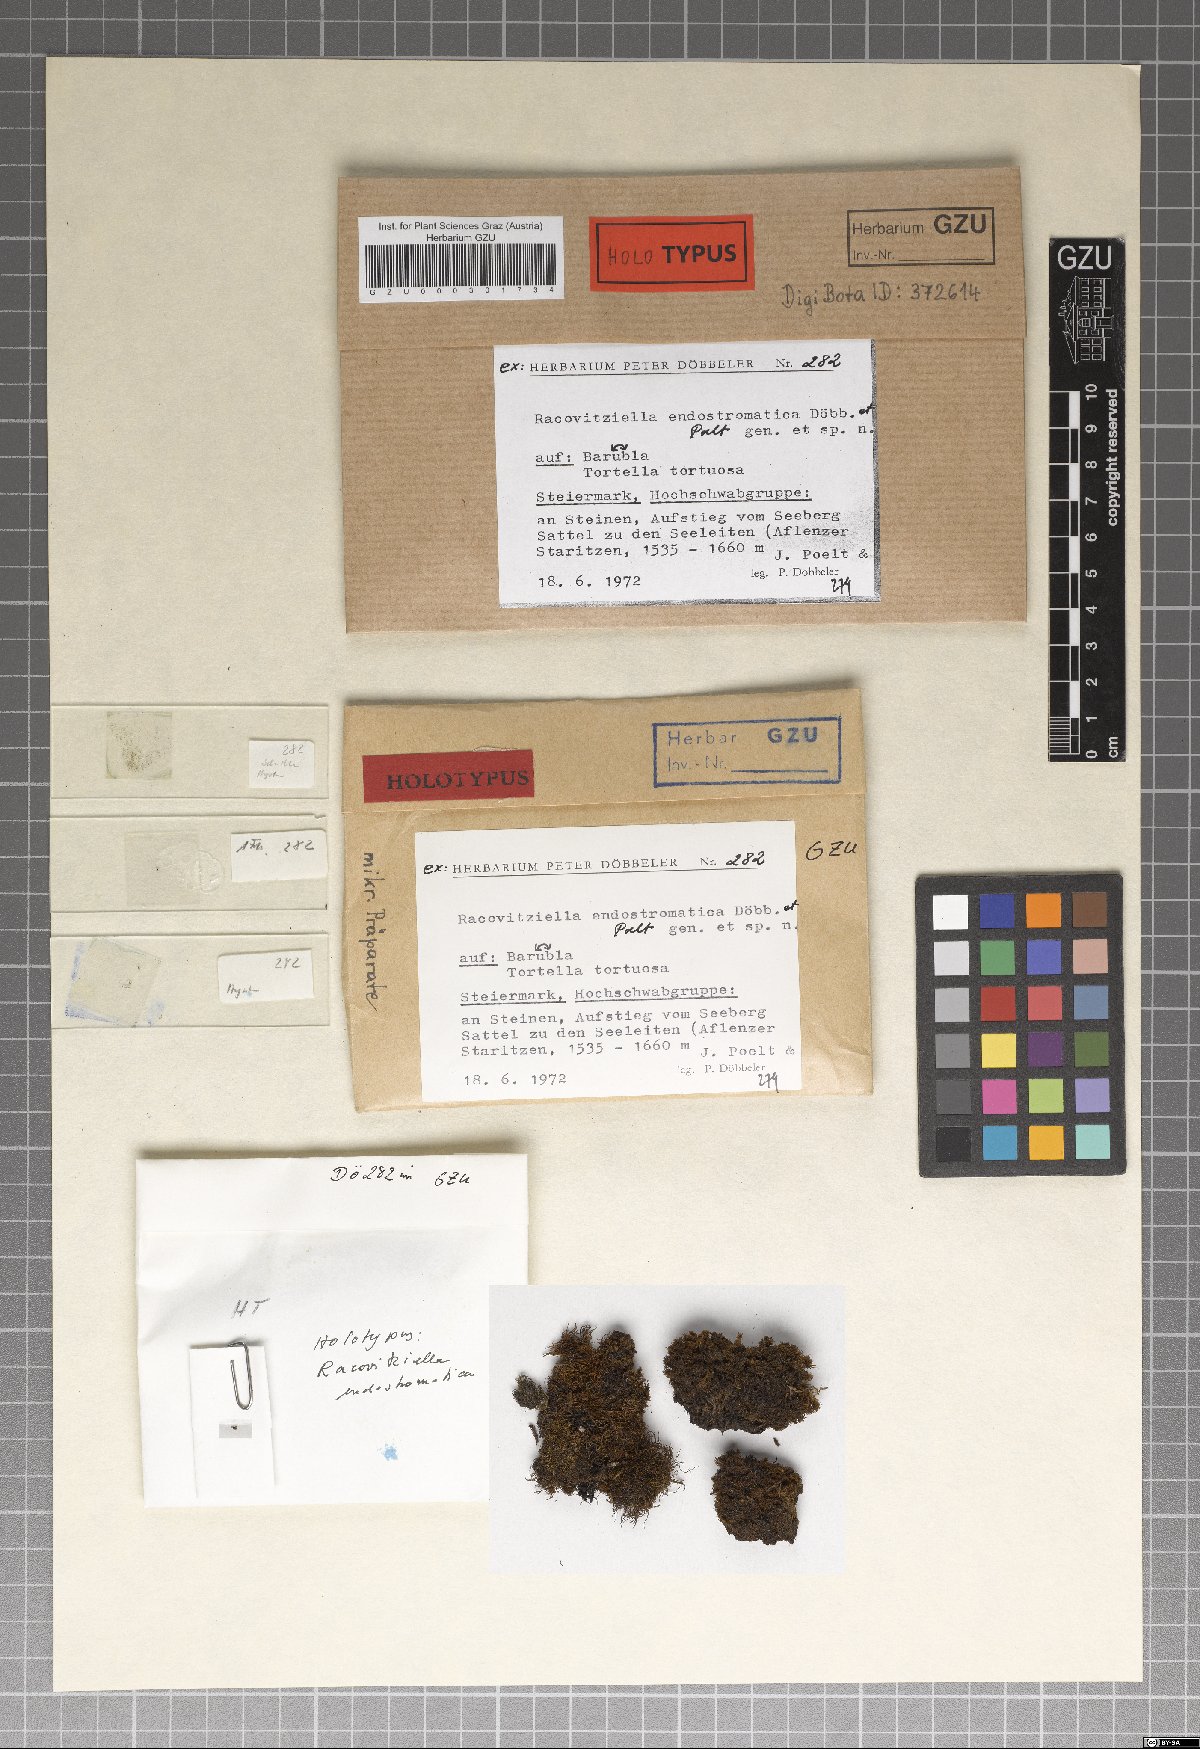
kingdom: Fungi
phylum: Ascomycota
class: Dothideomycetes
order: Dothideales
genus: Racovitziella
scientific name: Racovitziella endostromatica
